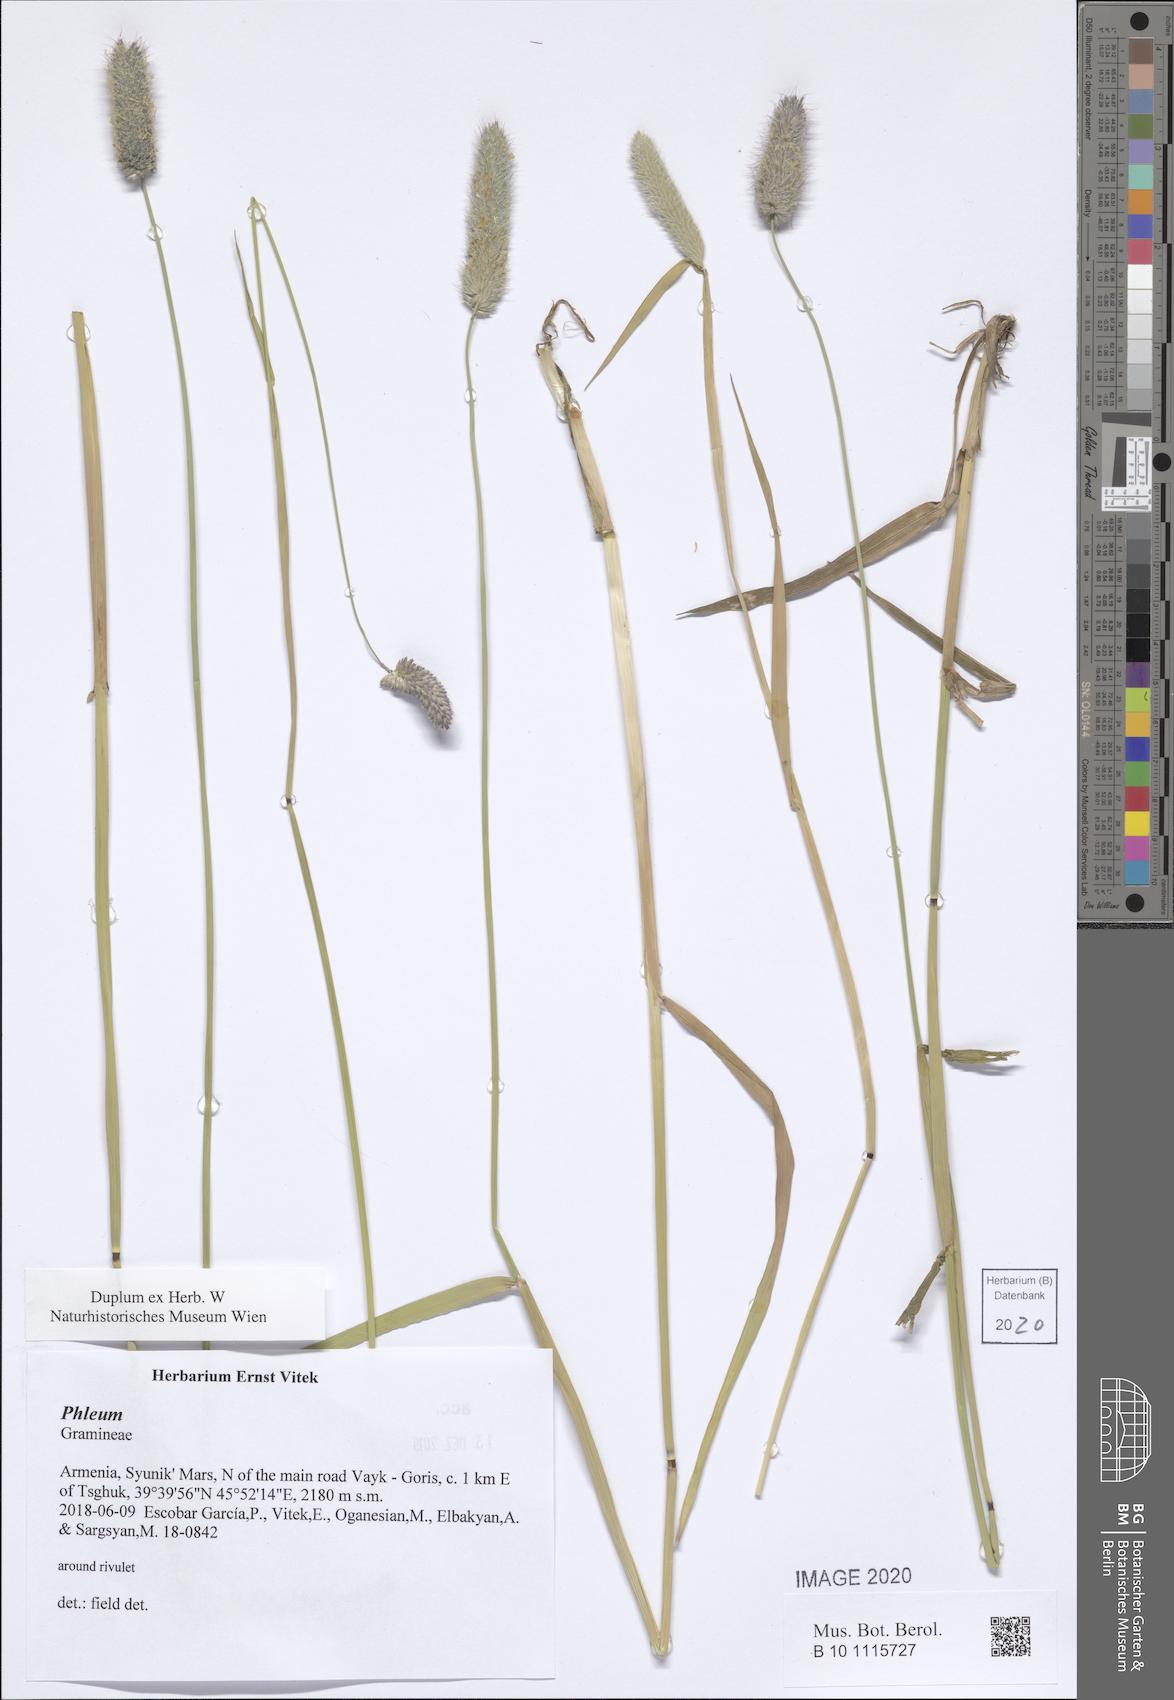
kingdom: Plantae
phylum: Tracheophyta
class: Liliopsida
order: Poales
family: Poaceae
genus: Phleum
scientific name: Phleum
